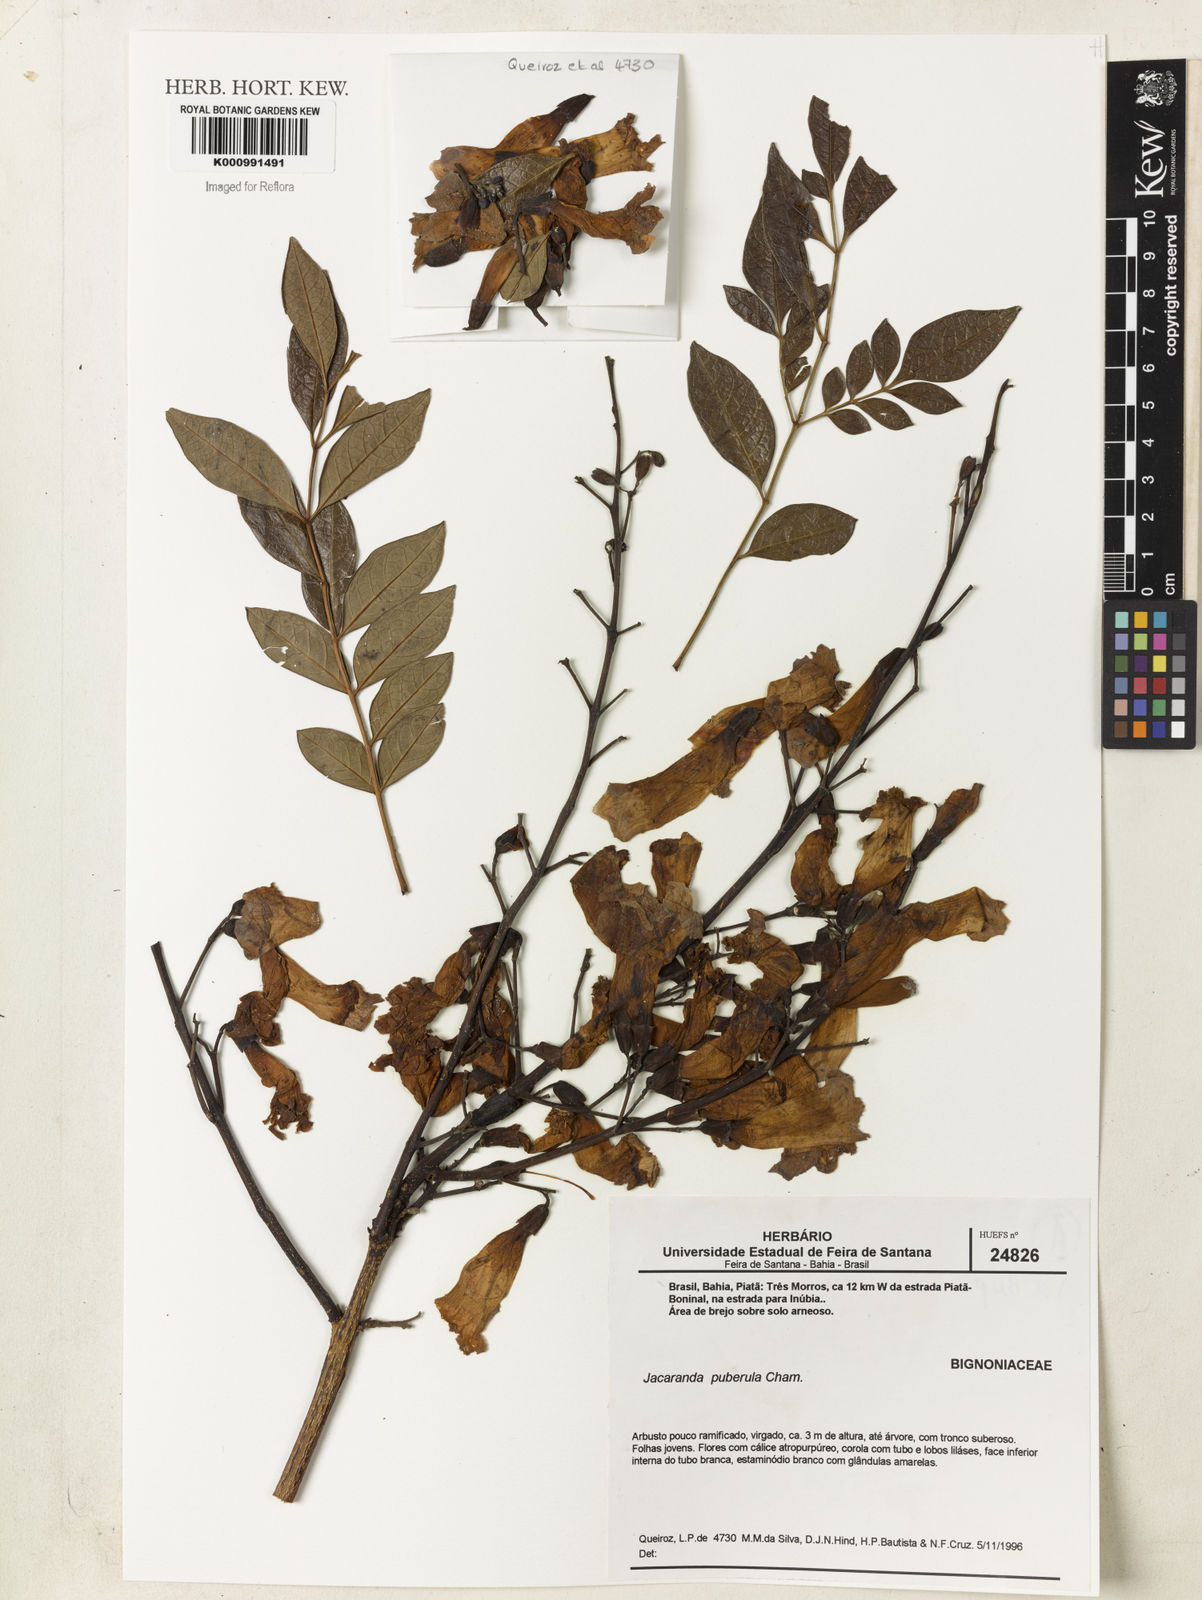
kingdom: Plantae
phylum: Tracheophyta
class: Magnoliopsida
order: Lamiales
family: Bignoniaceae
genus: Jacaranda
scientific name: Jacaranda puberula
